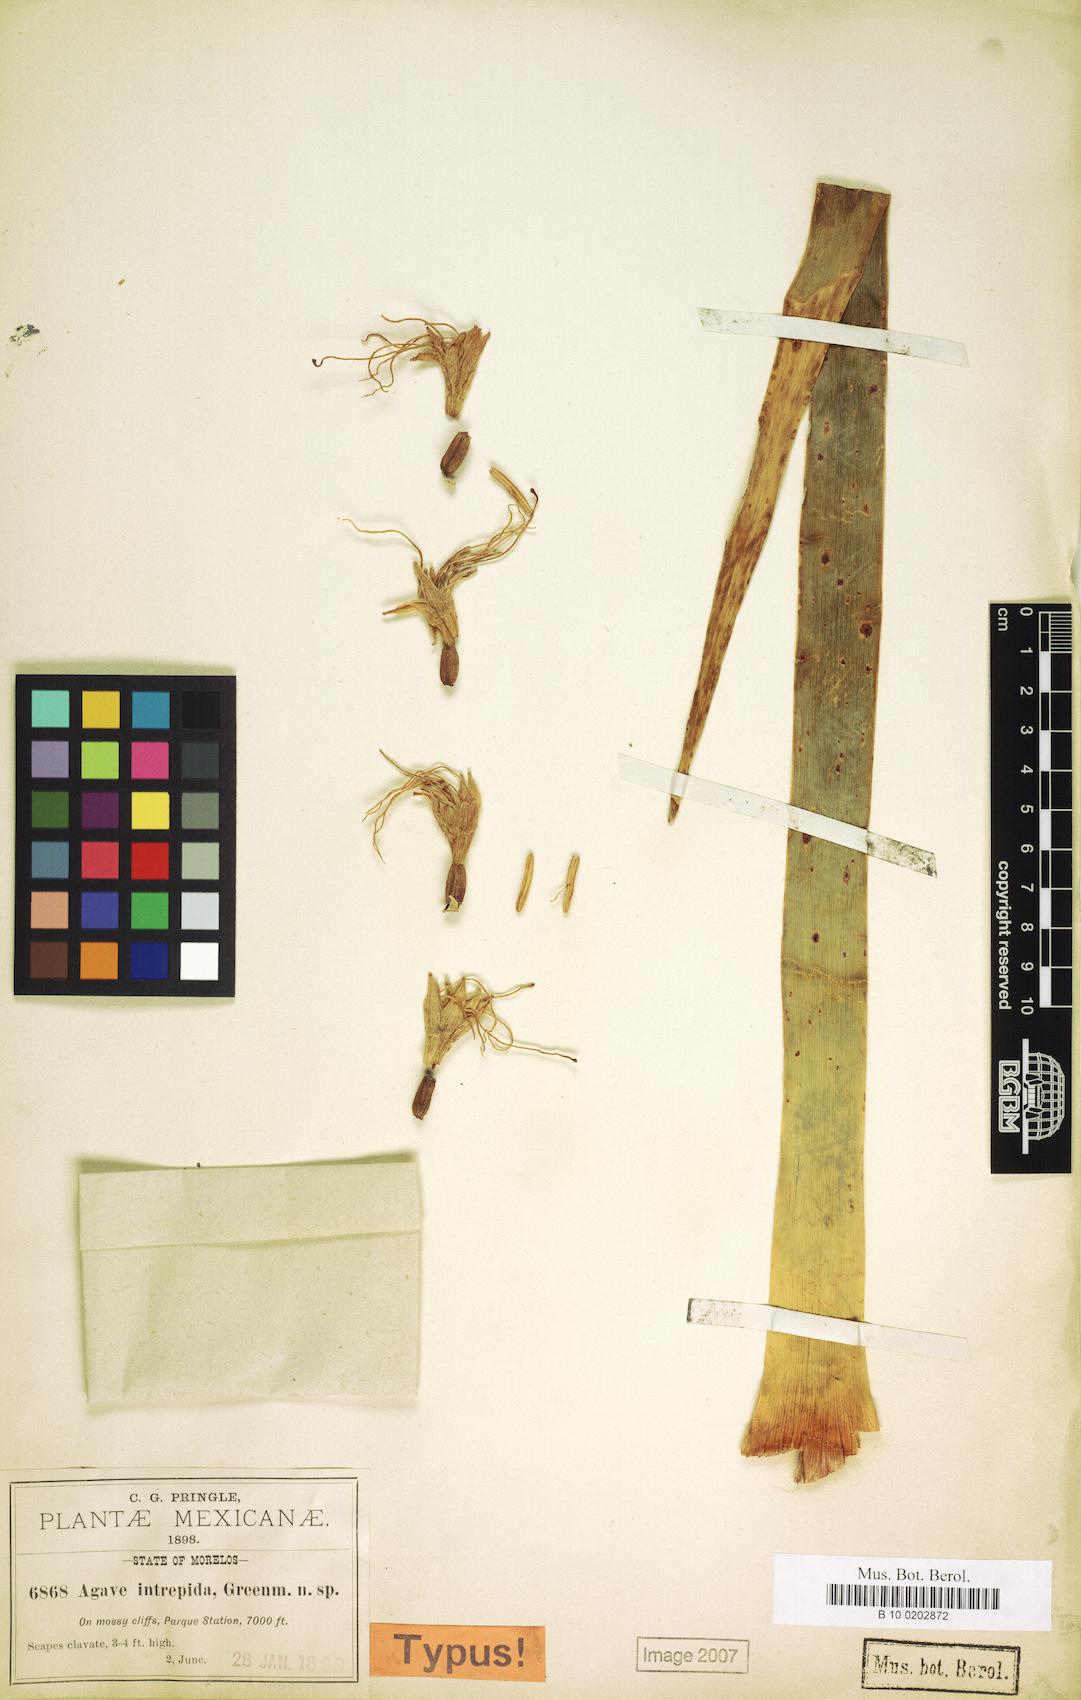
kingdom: Plantae
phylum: Tracheophyta
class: Liliopsida
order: Asparagales
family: Asparagaceae
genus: Agave
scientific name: Agave dealbata
